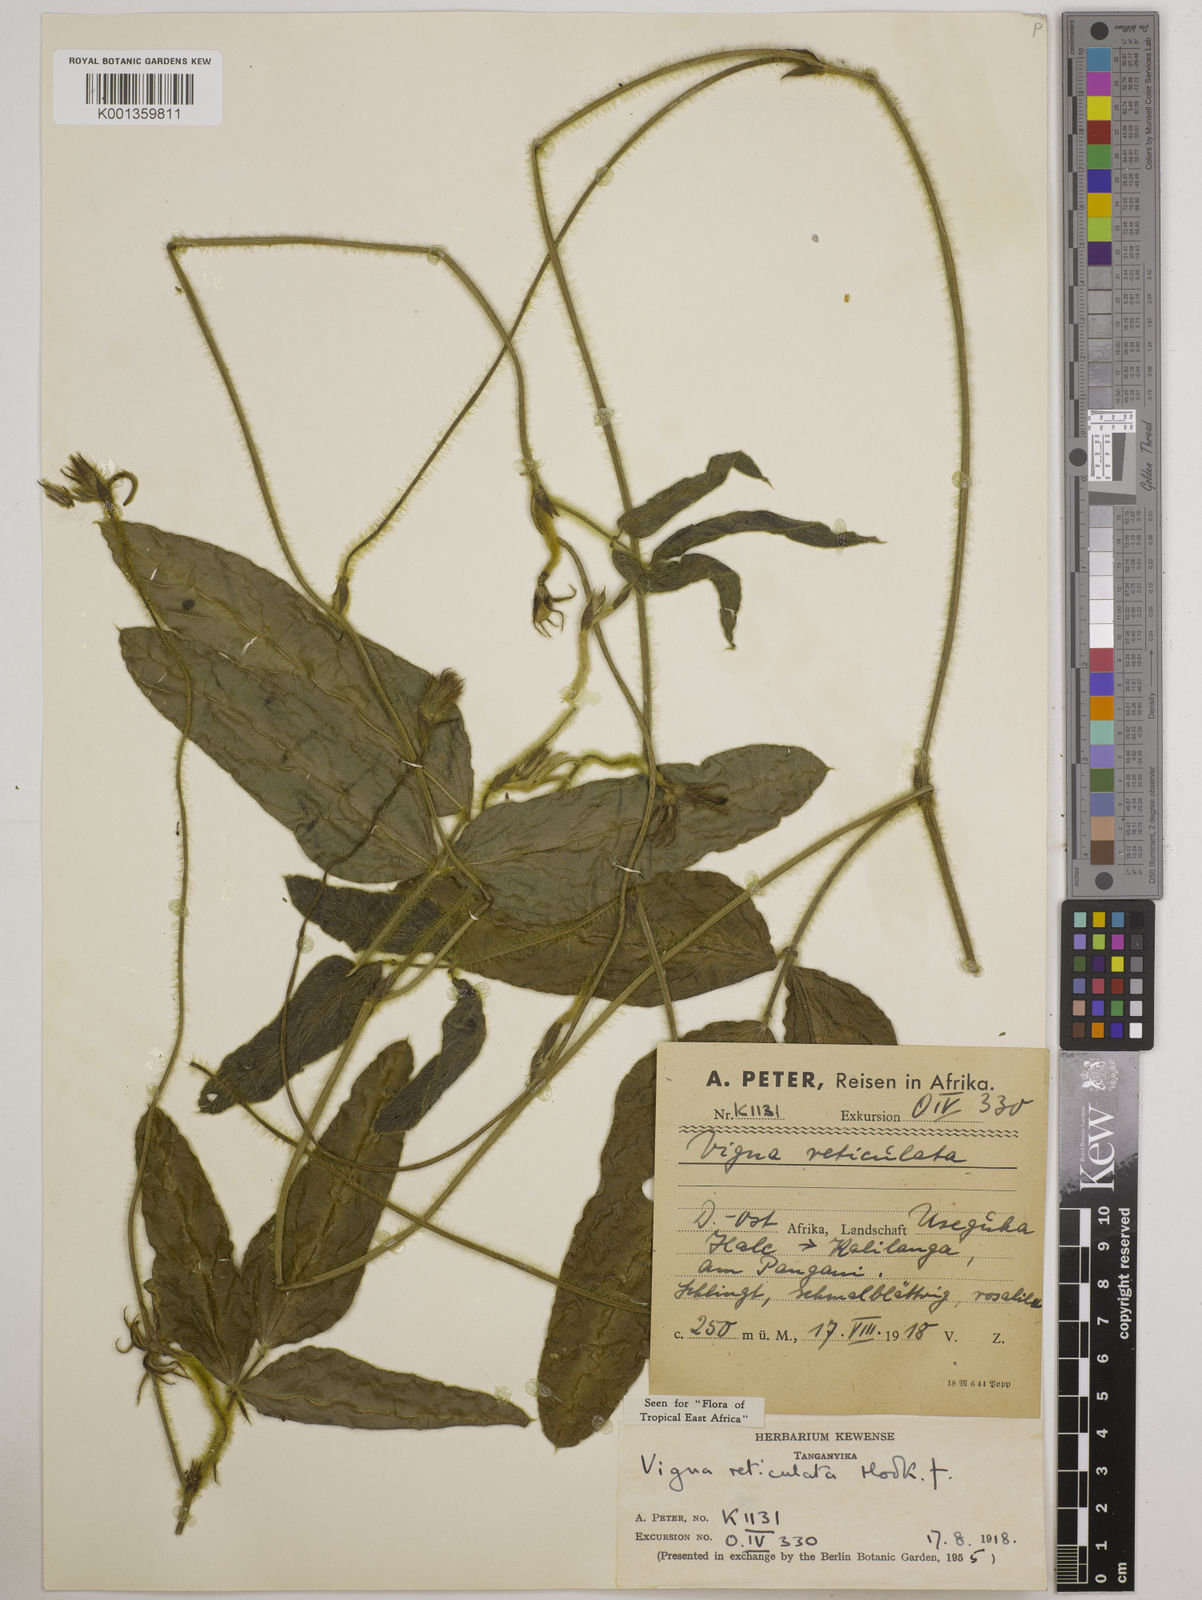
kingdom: Plantae
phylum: Tracheophyta
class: Magnoliopsida
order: Fabales
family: Fabaceae
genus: Vigna
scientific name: Vigna reticulata
